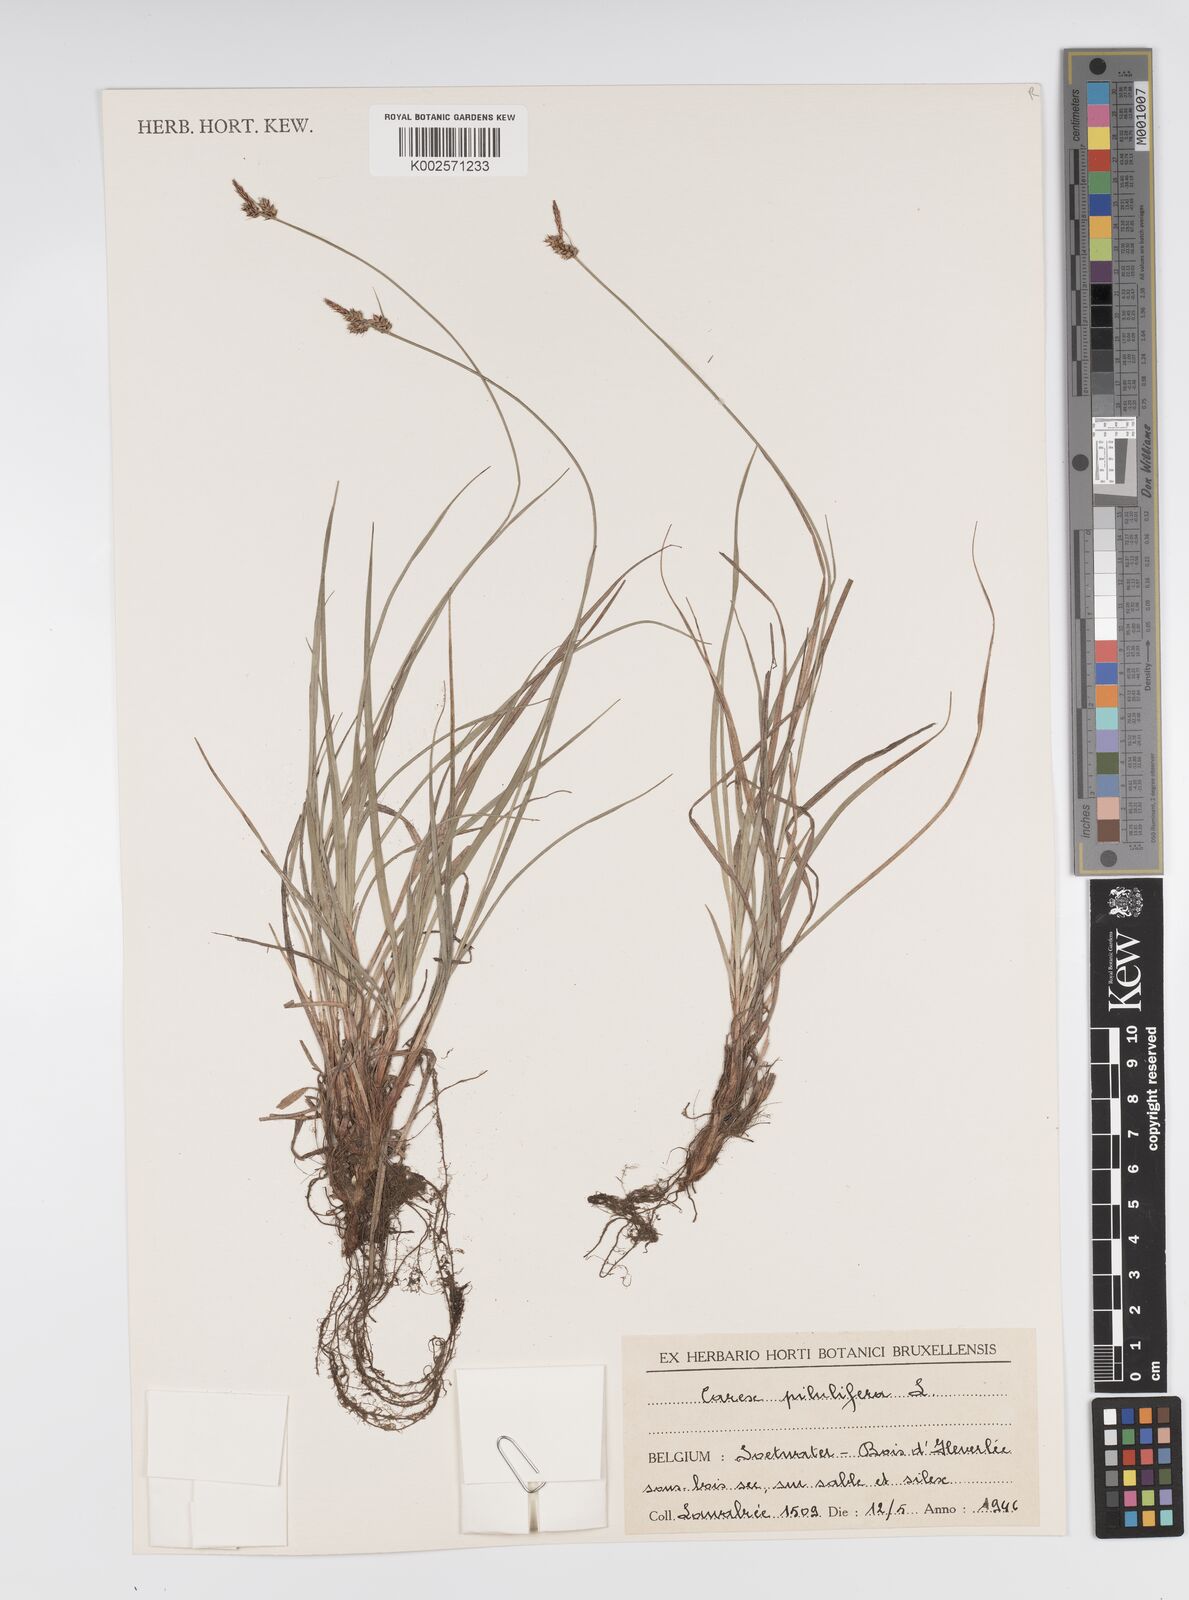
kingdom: Plantae
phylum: Tracheophyta
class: Liliopsida
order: Poales
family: Cyperaceae
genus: Carex
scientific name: Carex pilulifera
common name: Pill sedge
